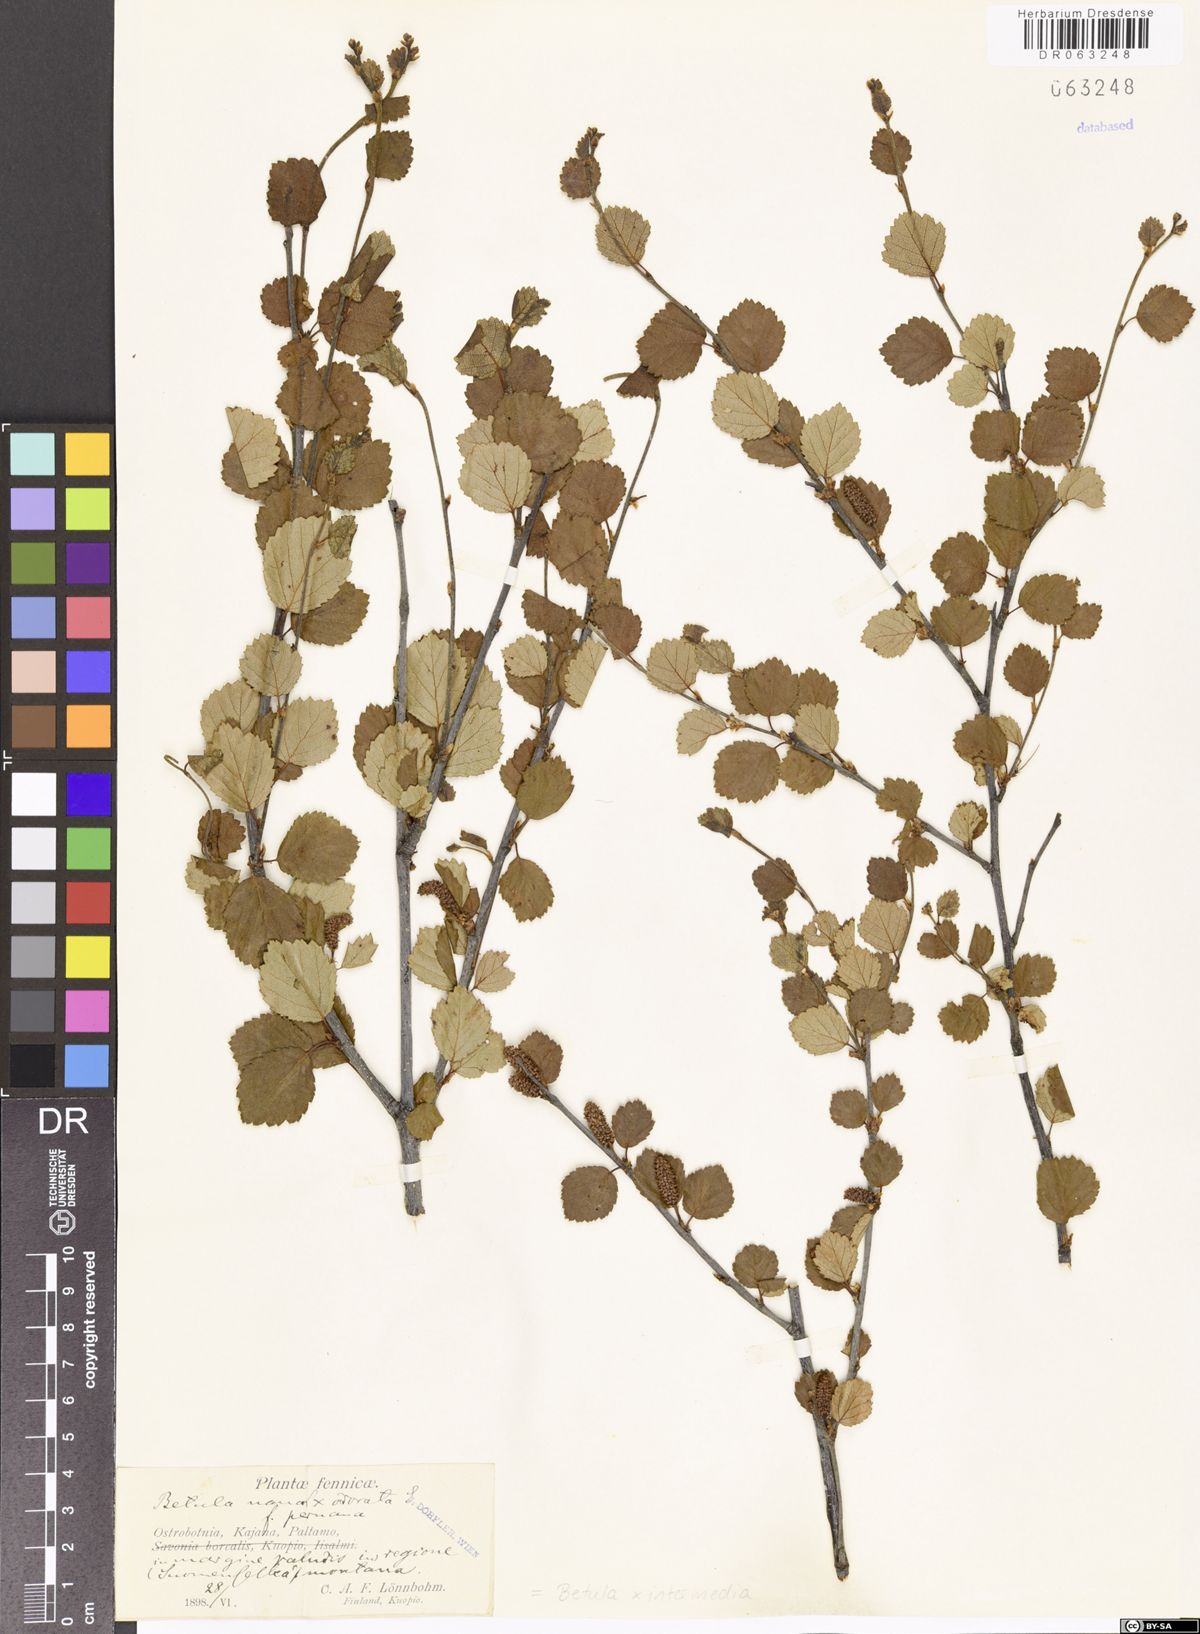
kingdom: Plantae
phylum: Tracheophyta
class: Magnoliopsida
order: Fagales
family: Betulaceae
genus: Betula
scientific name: Betula intermedia
